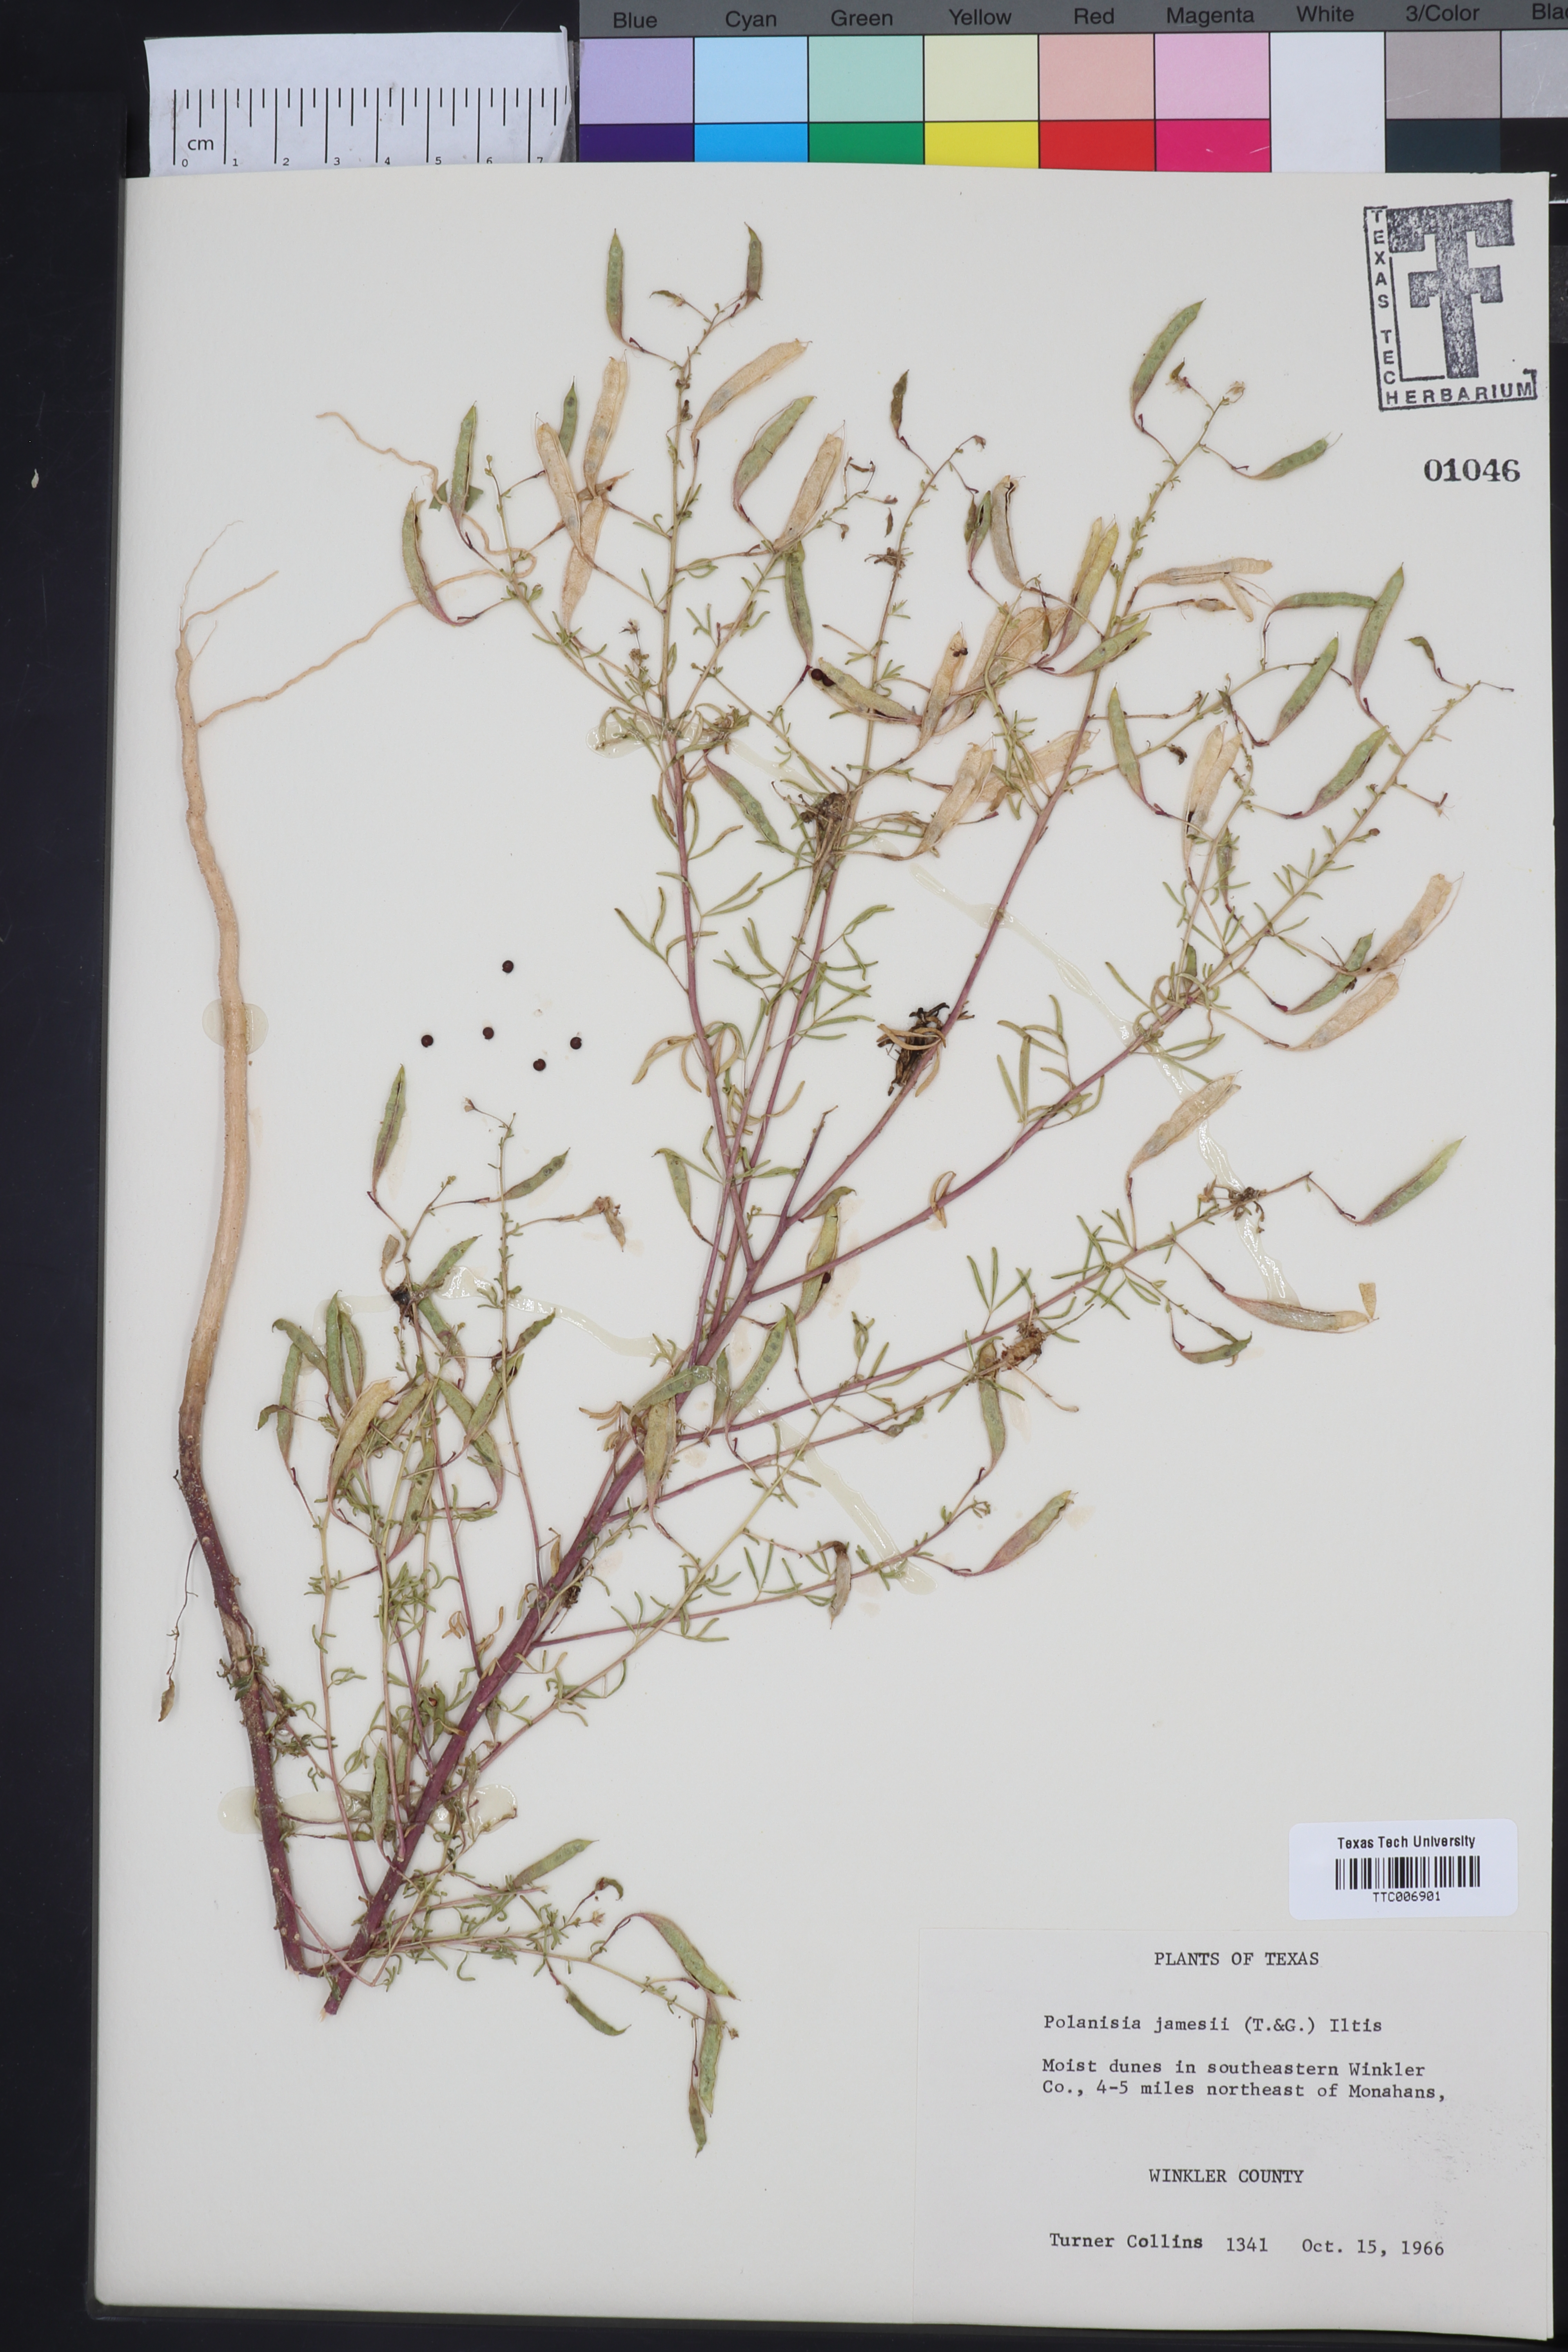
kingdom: Plantae
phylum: Tracheophyta
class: Magnoliopsida
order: Brassicales
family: Cleomaceae
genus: Polanisia
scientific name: Polanisia jamesii
